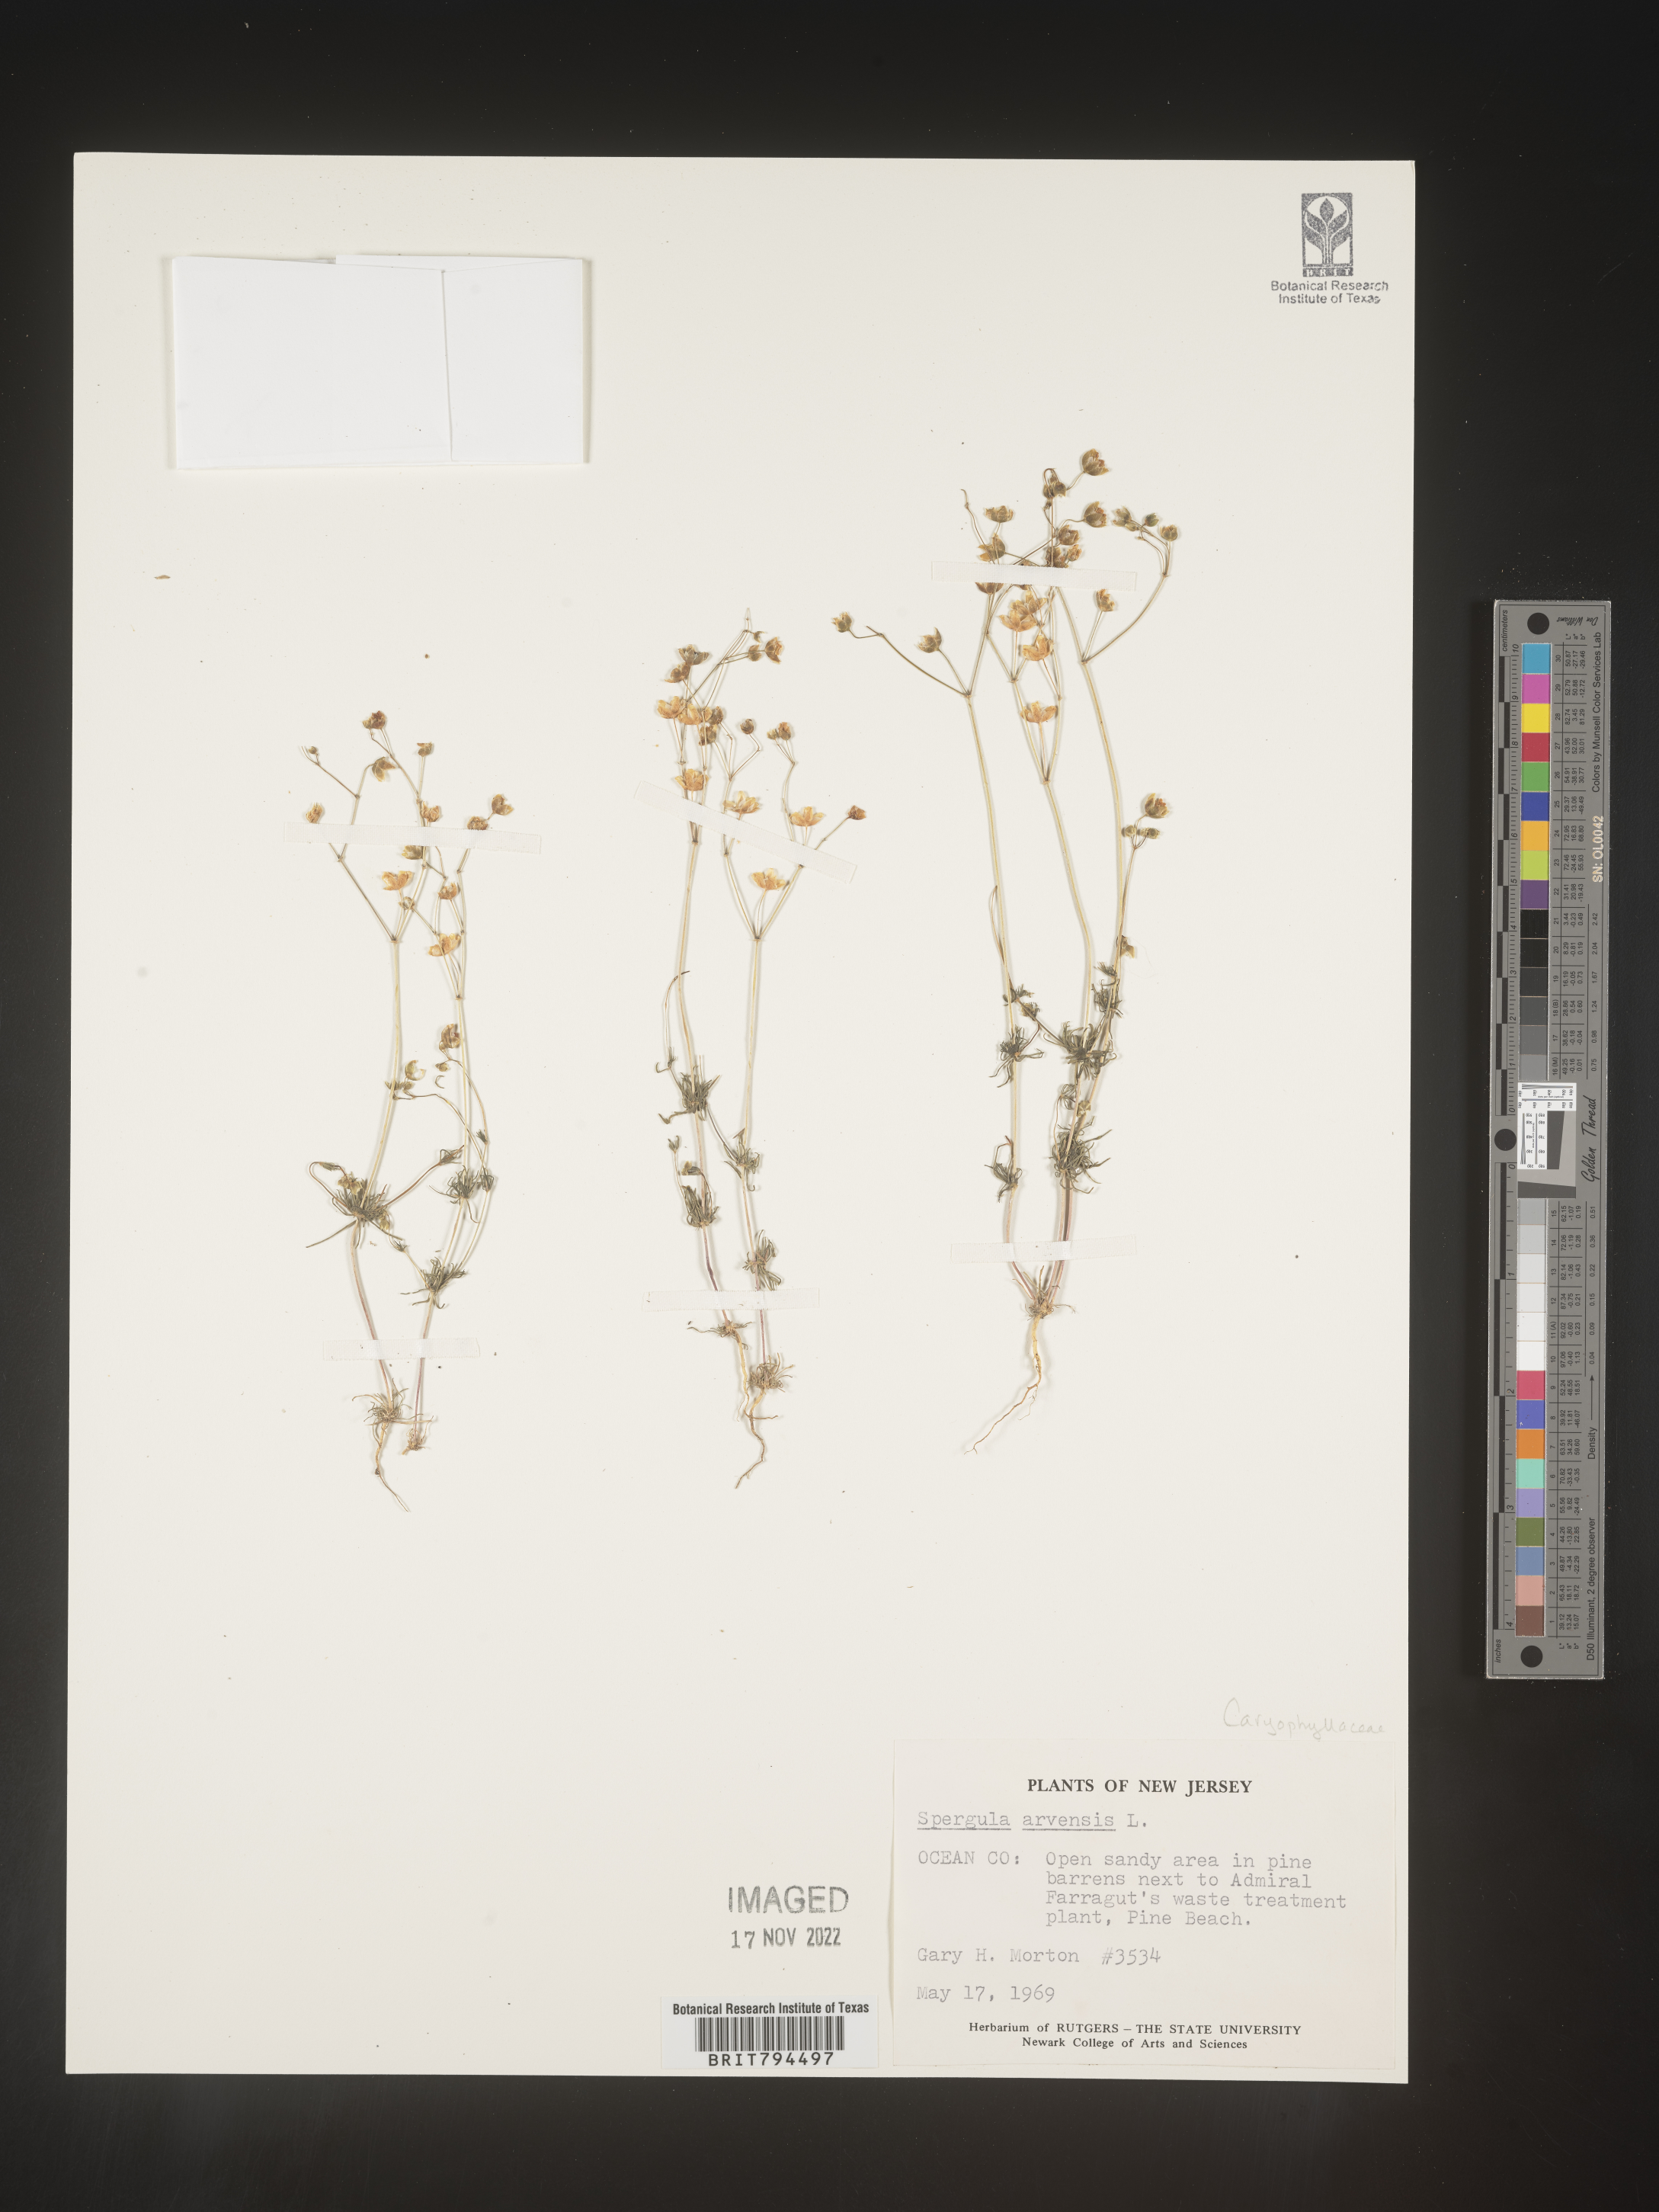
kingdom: Plantae
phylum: Tracheophyta
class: Magnoliopsida
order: Caryophyllales
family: Caryophyllaceae
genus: Spergula
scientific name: Spergula arvensis
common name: Corn spurrey
